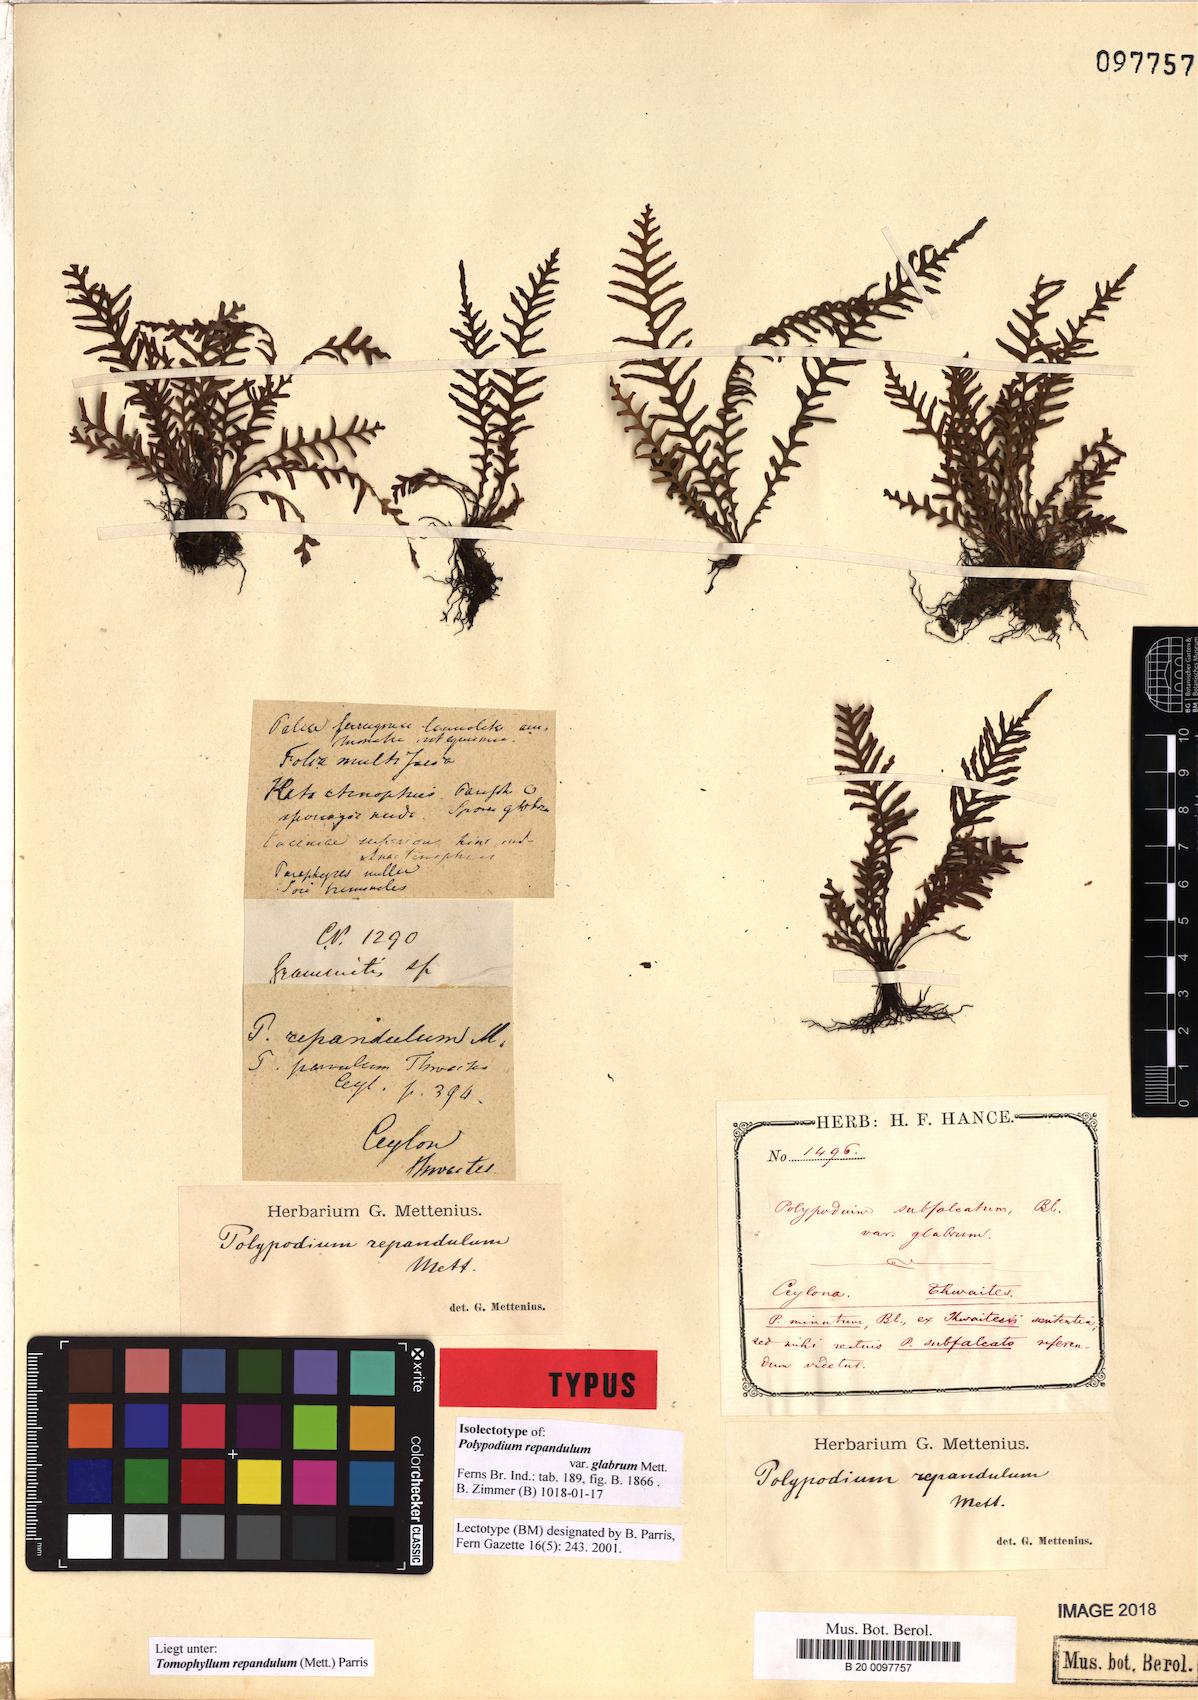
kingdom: Plantae
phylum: Tracheophyta
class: Polypodiopsida
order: Polypodiales
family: Polypodiaceae
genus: Tomophyllum
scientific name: Tomophyllum repandulum
